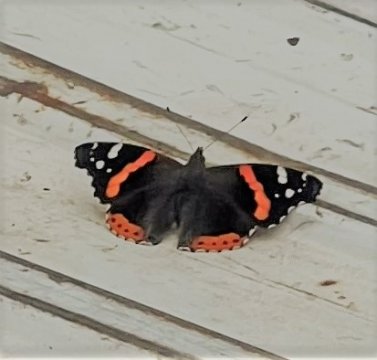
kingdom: Animalia
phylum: Arthropoda
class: Insecta
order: Lepidoptera
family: Nymphalidae
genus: Vanessa
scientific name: Vanessa atalanta
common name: Red Admiral
